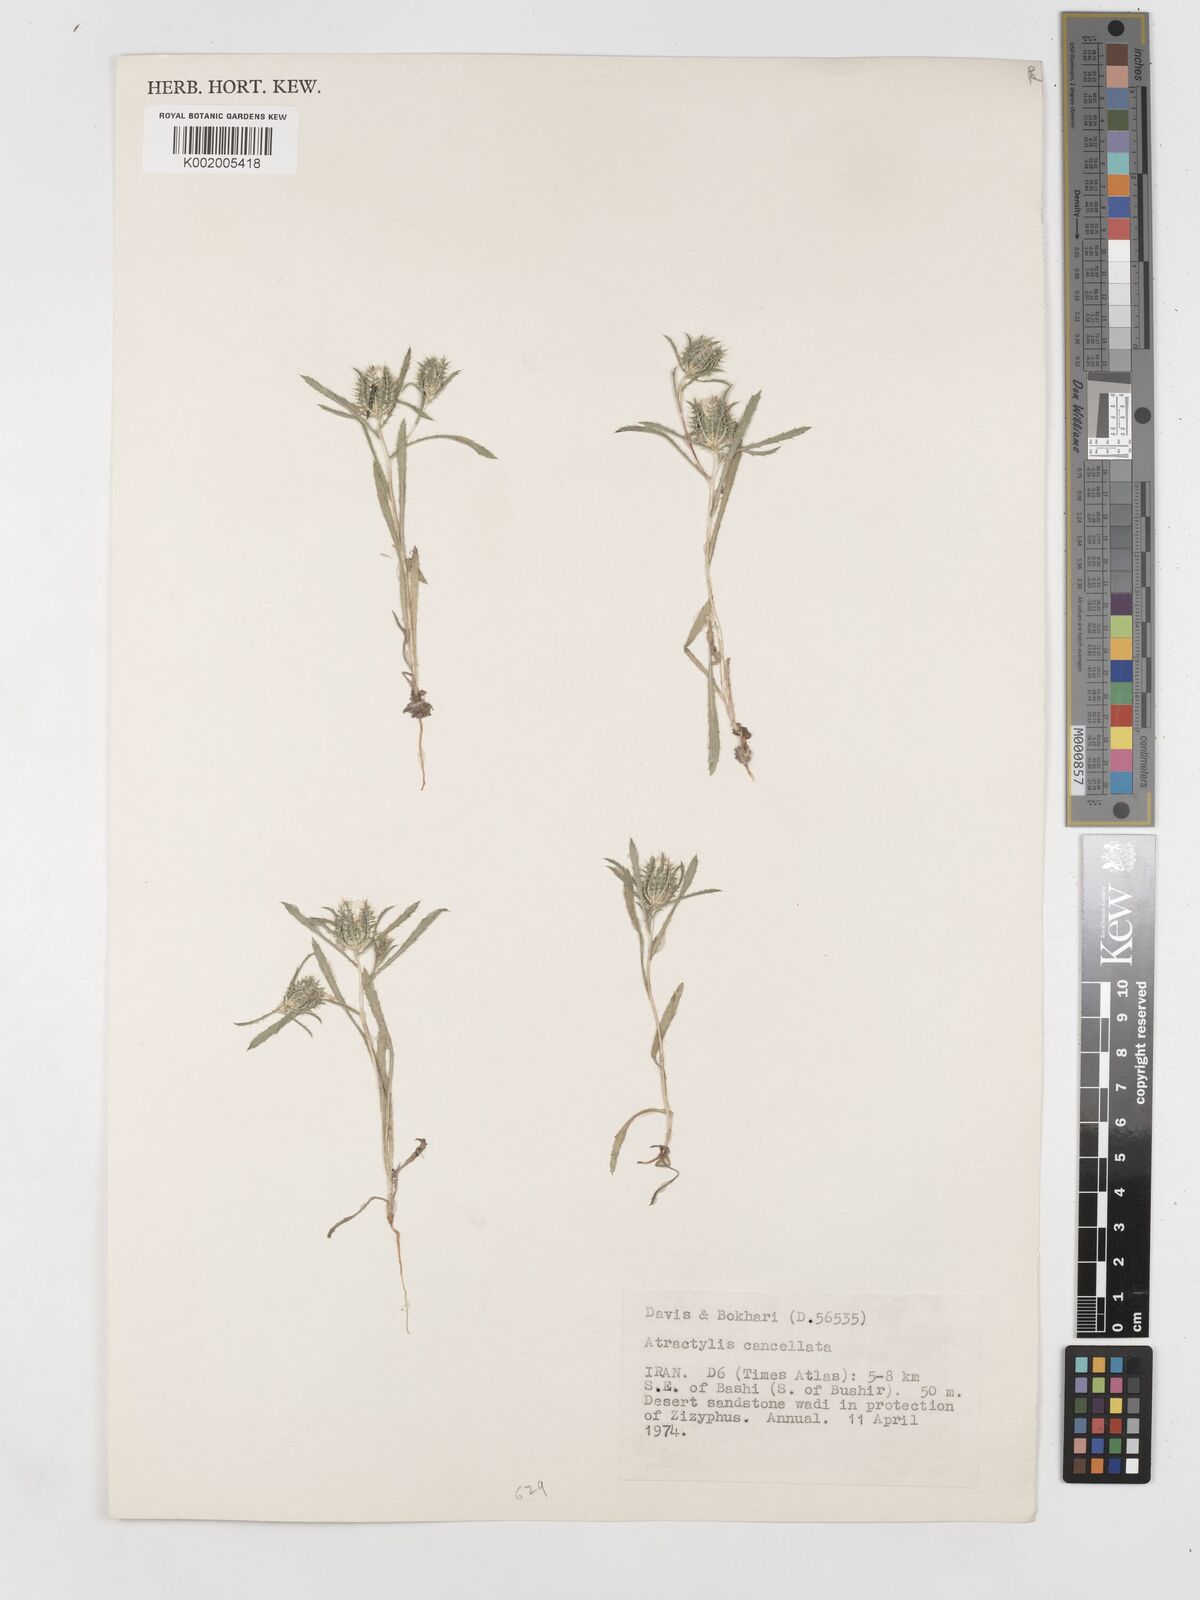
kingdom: Plantae
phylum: Tracheophyta
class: Magnoliopsida
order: Asterales
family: Asteraceae
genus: Atractylis
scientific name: Atractylis cancellata
